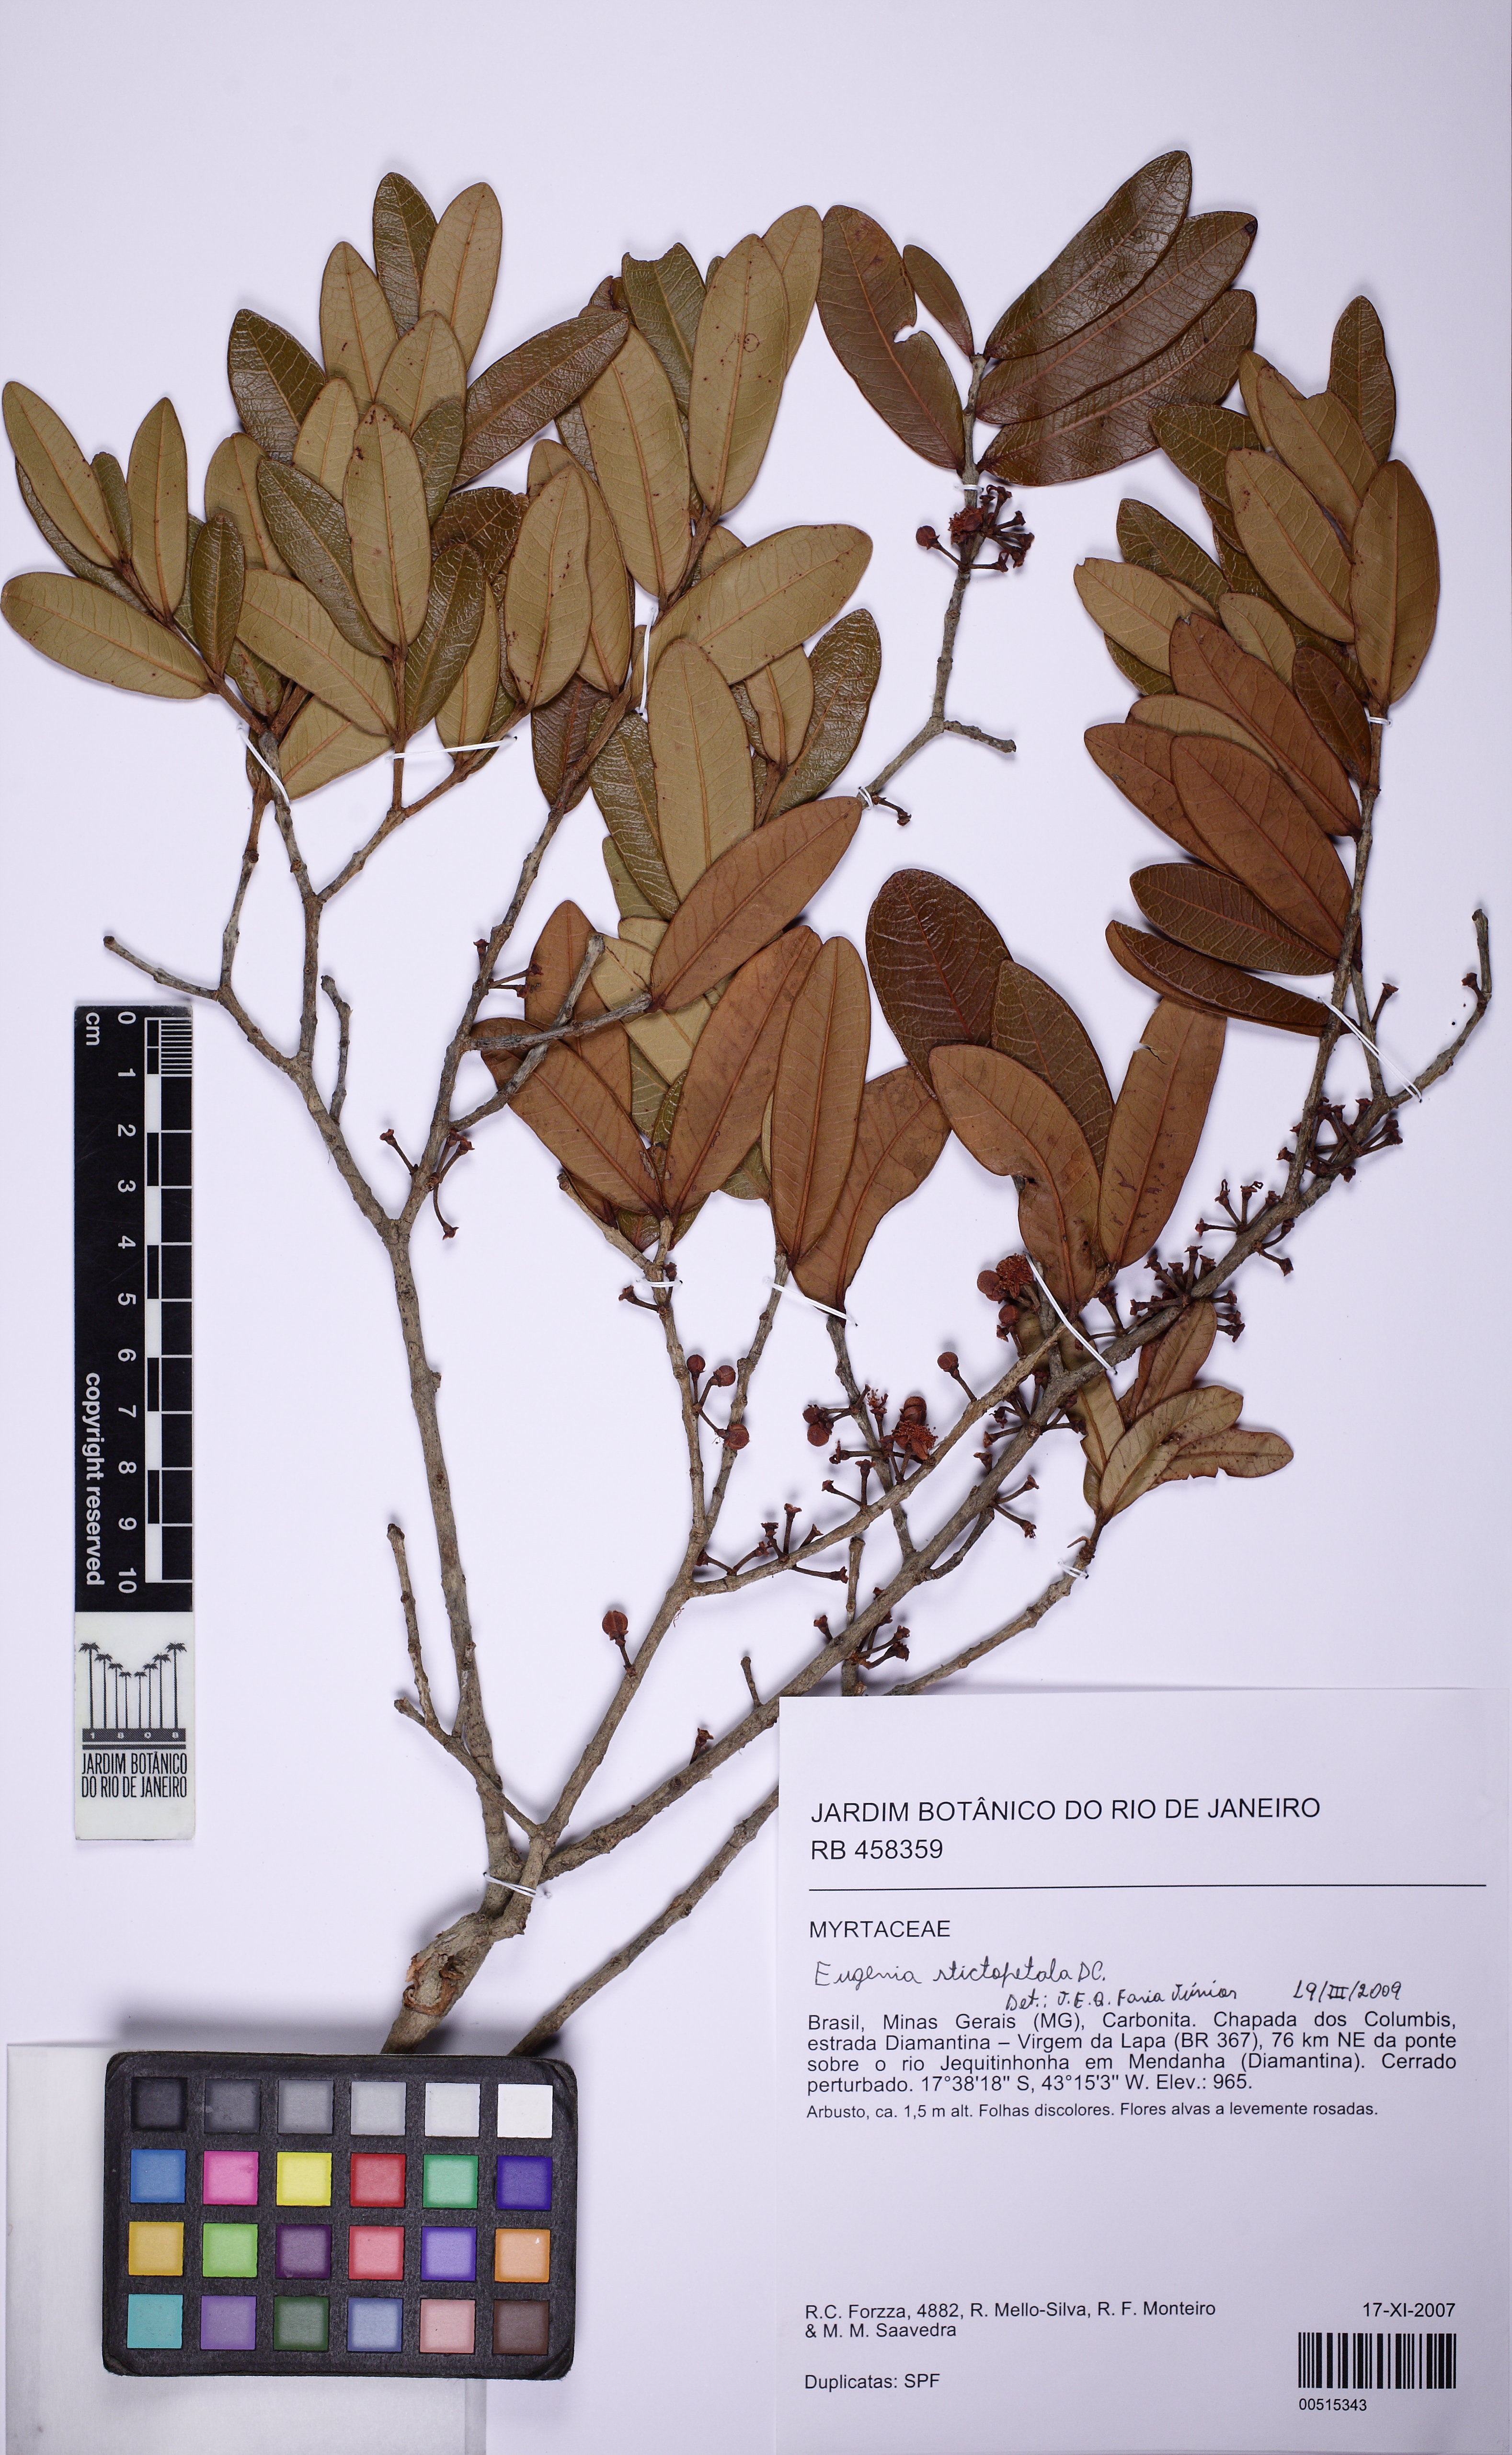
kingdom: Plantae
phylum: Tracheophyta
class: Magnoliopsida
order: Myrtales
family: Myrtaceae
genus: Eugenia
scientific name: Eugenia stictopetala
